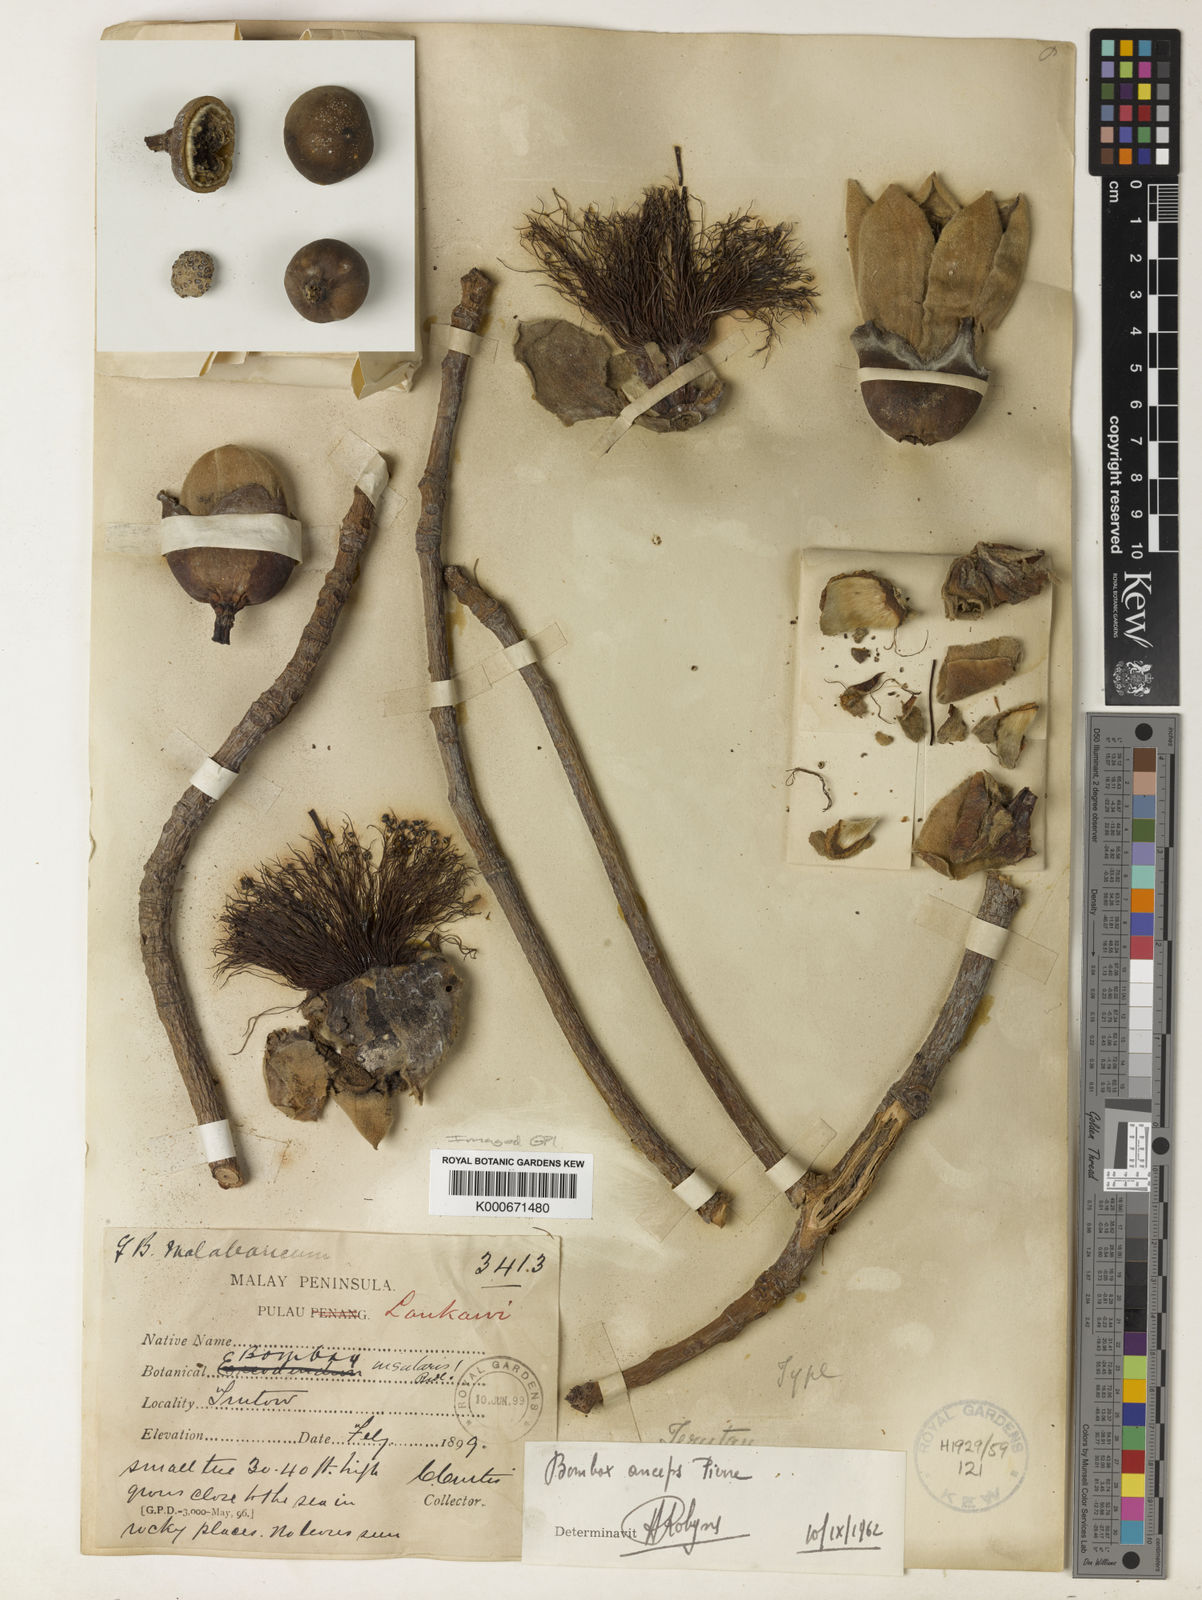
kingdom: Plantae
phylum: Tracheophyta
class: Magnoliopsida
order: Malvales
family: Malvaceae
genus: Bombax
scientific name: Bombax anceps
